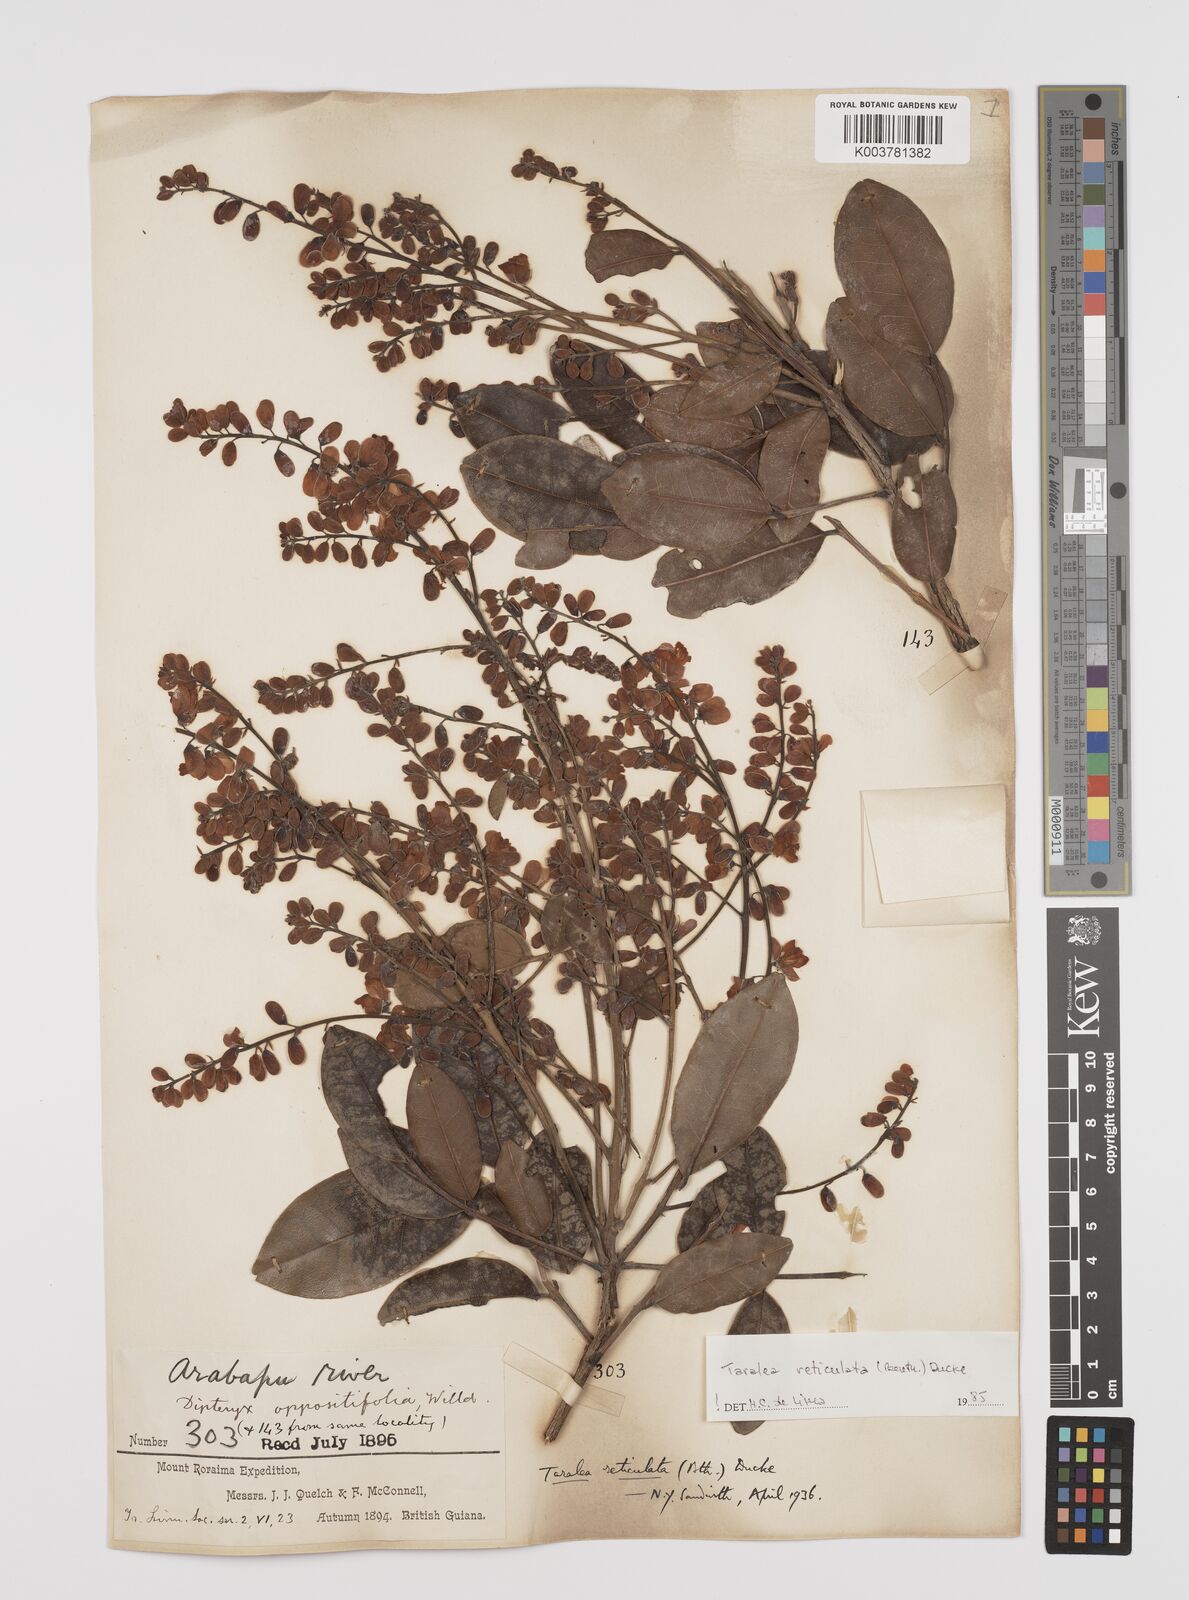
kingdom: Plantae
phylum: Tracheophyta
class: Magnoliopsida
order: Fabales
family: Fabaceae
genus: Taralea
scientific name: Taralea reticulata
